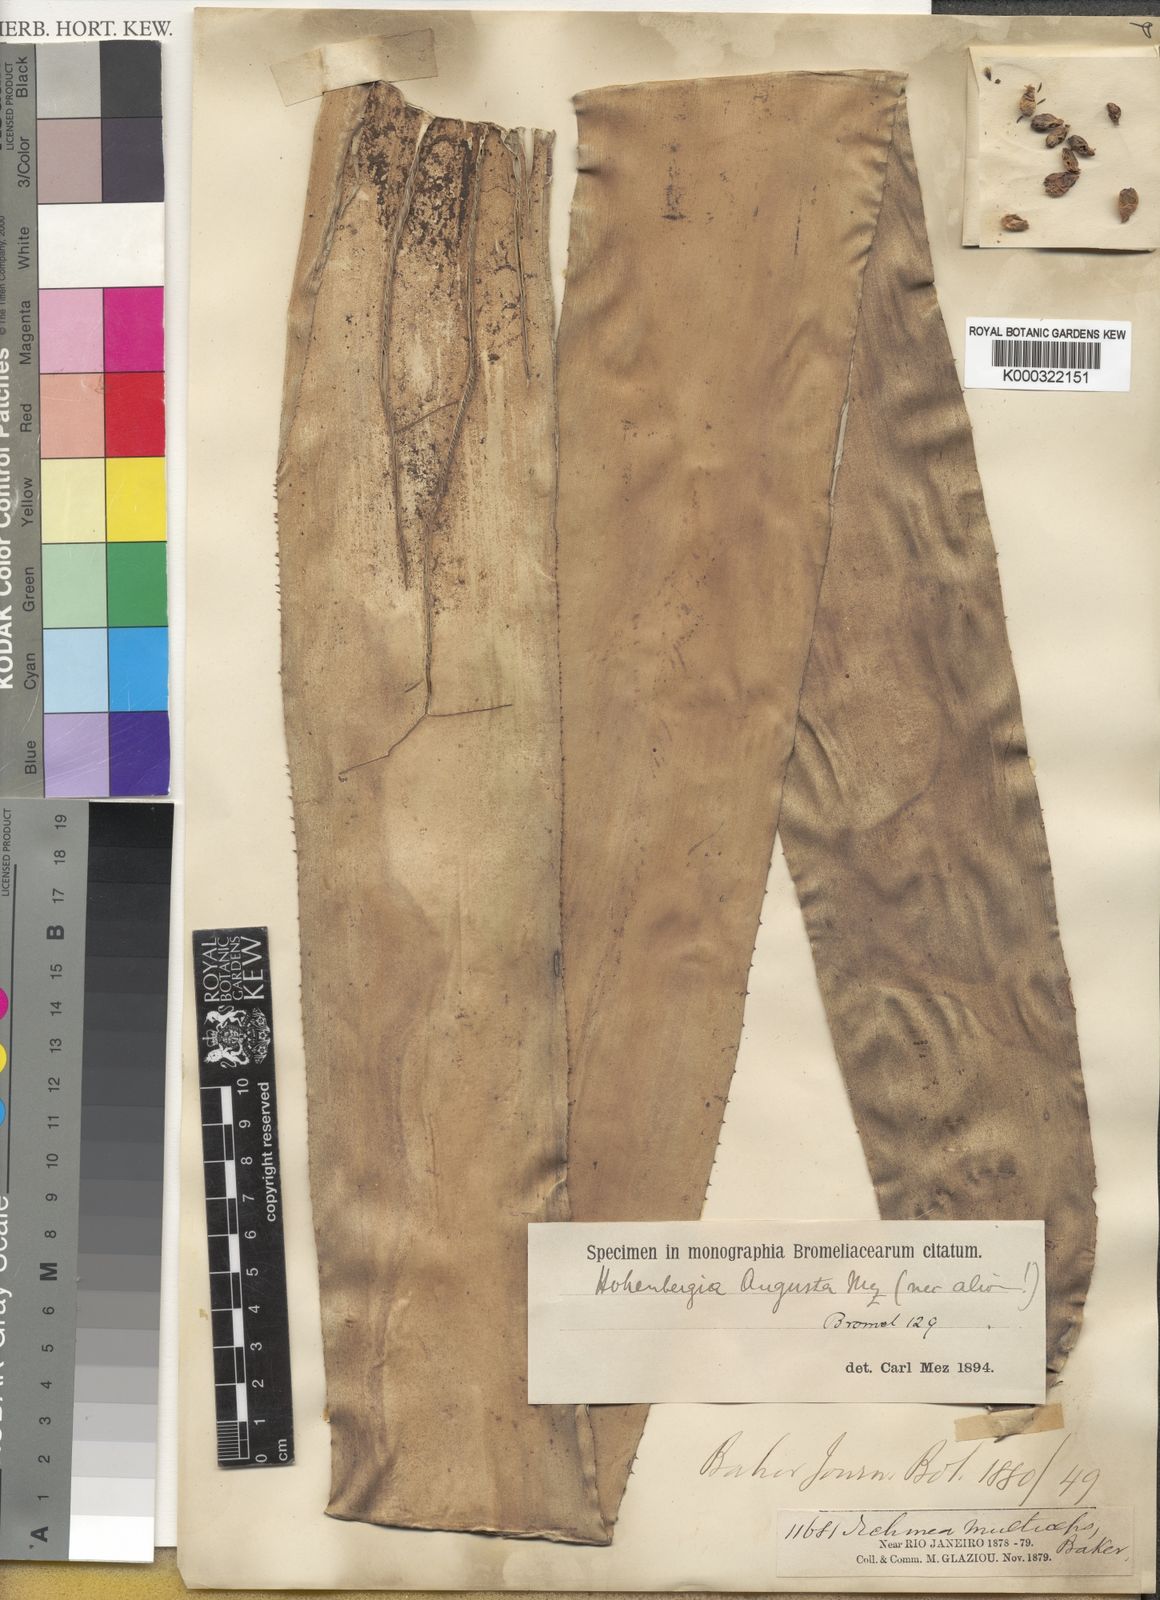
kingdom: Plantae
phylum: Tracheophyta
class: Liliopsida
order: Poales
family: Bromeliaceae
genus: Hohenbergia
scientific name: Hohenbergia
